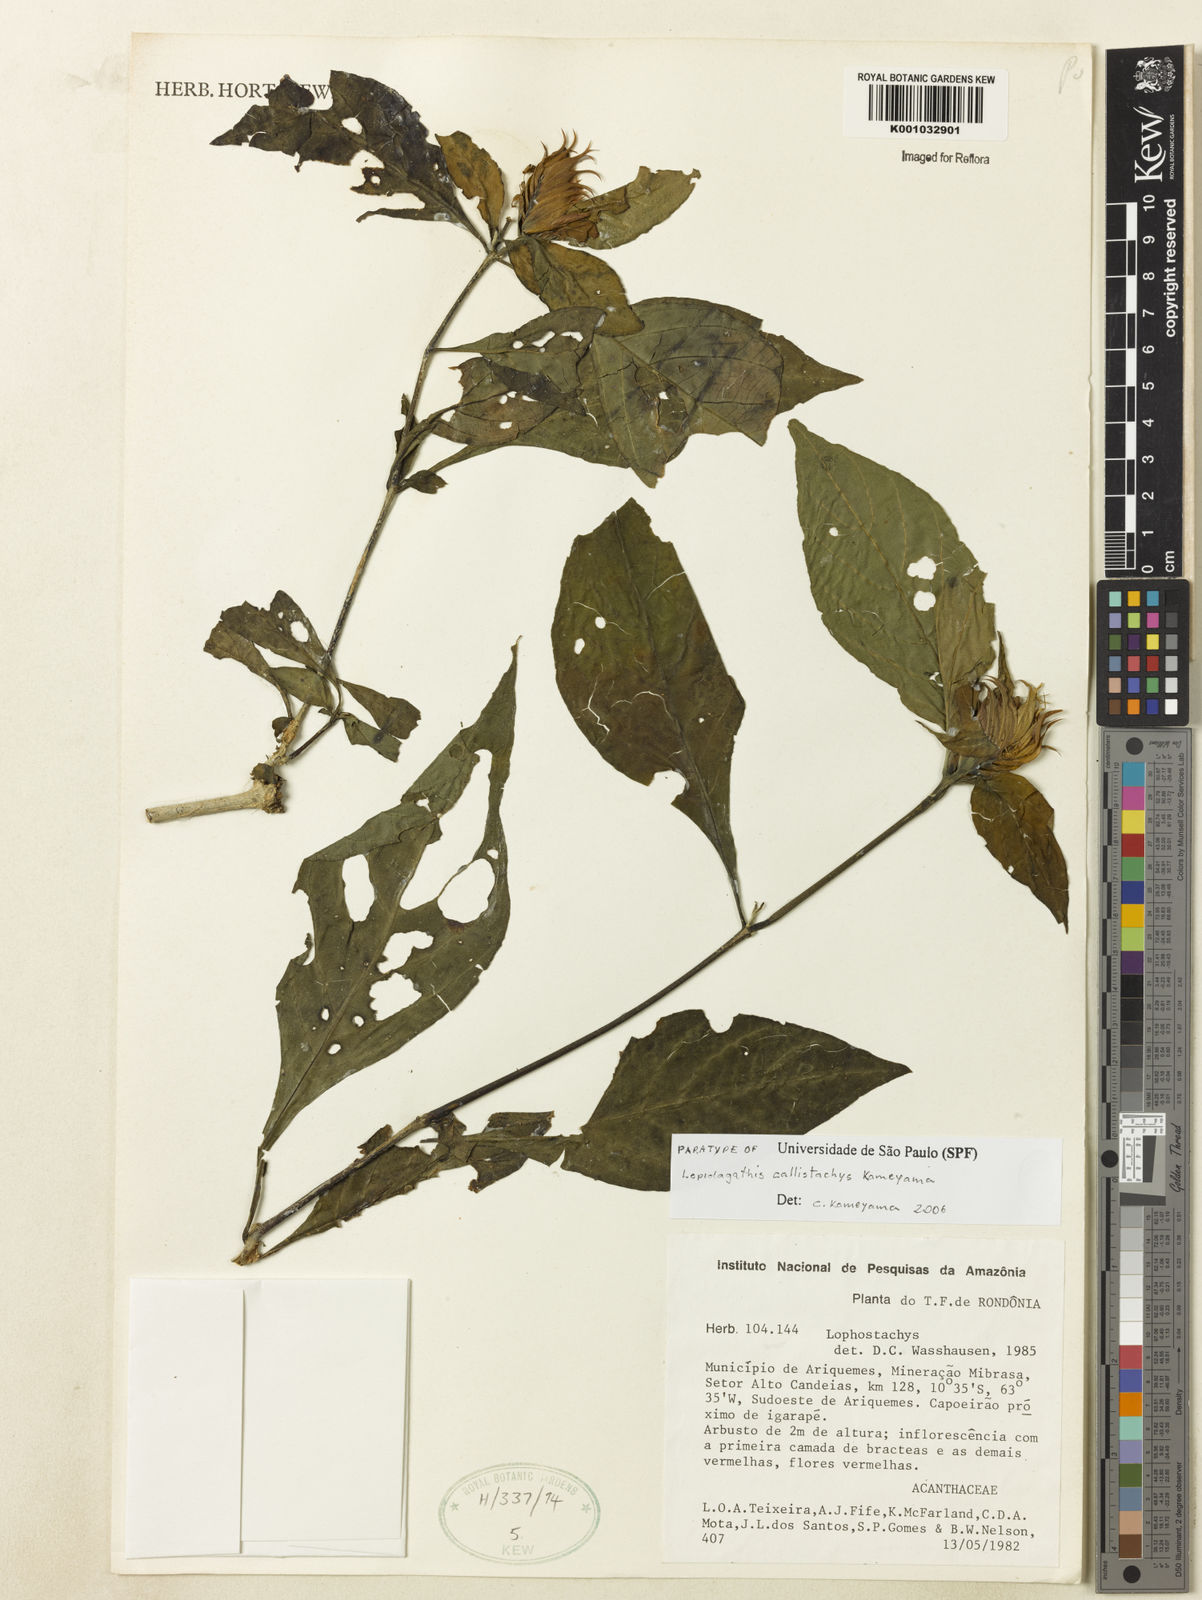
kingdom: Plantae
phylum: Tracheophyta
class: Magnoliopsida
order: Lamiales
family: Acanthaceae
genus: Lepidagathis
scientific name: Lepidagathis callistachys
